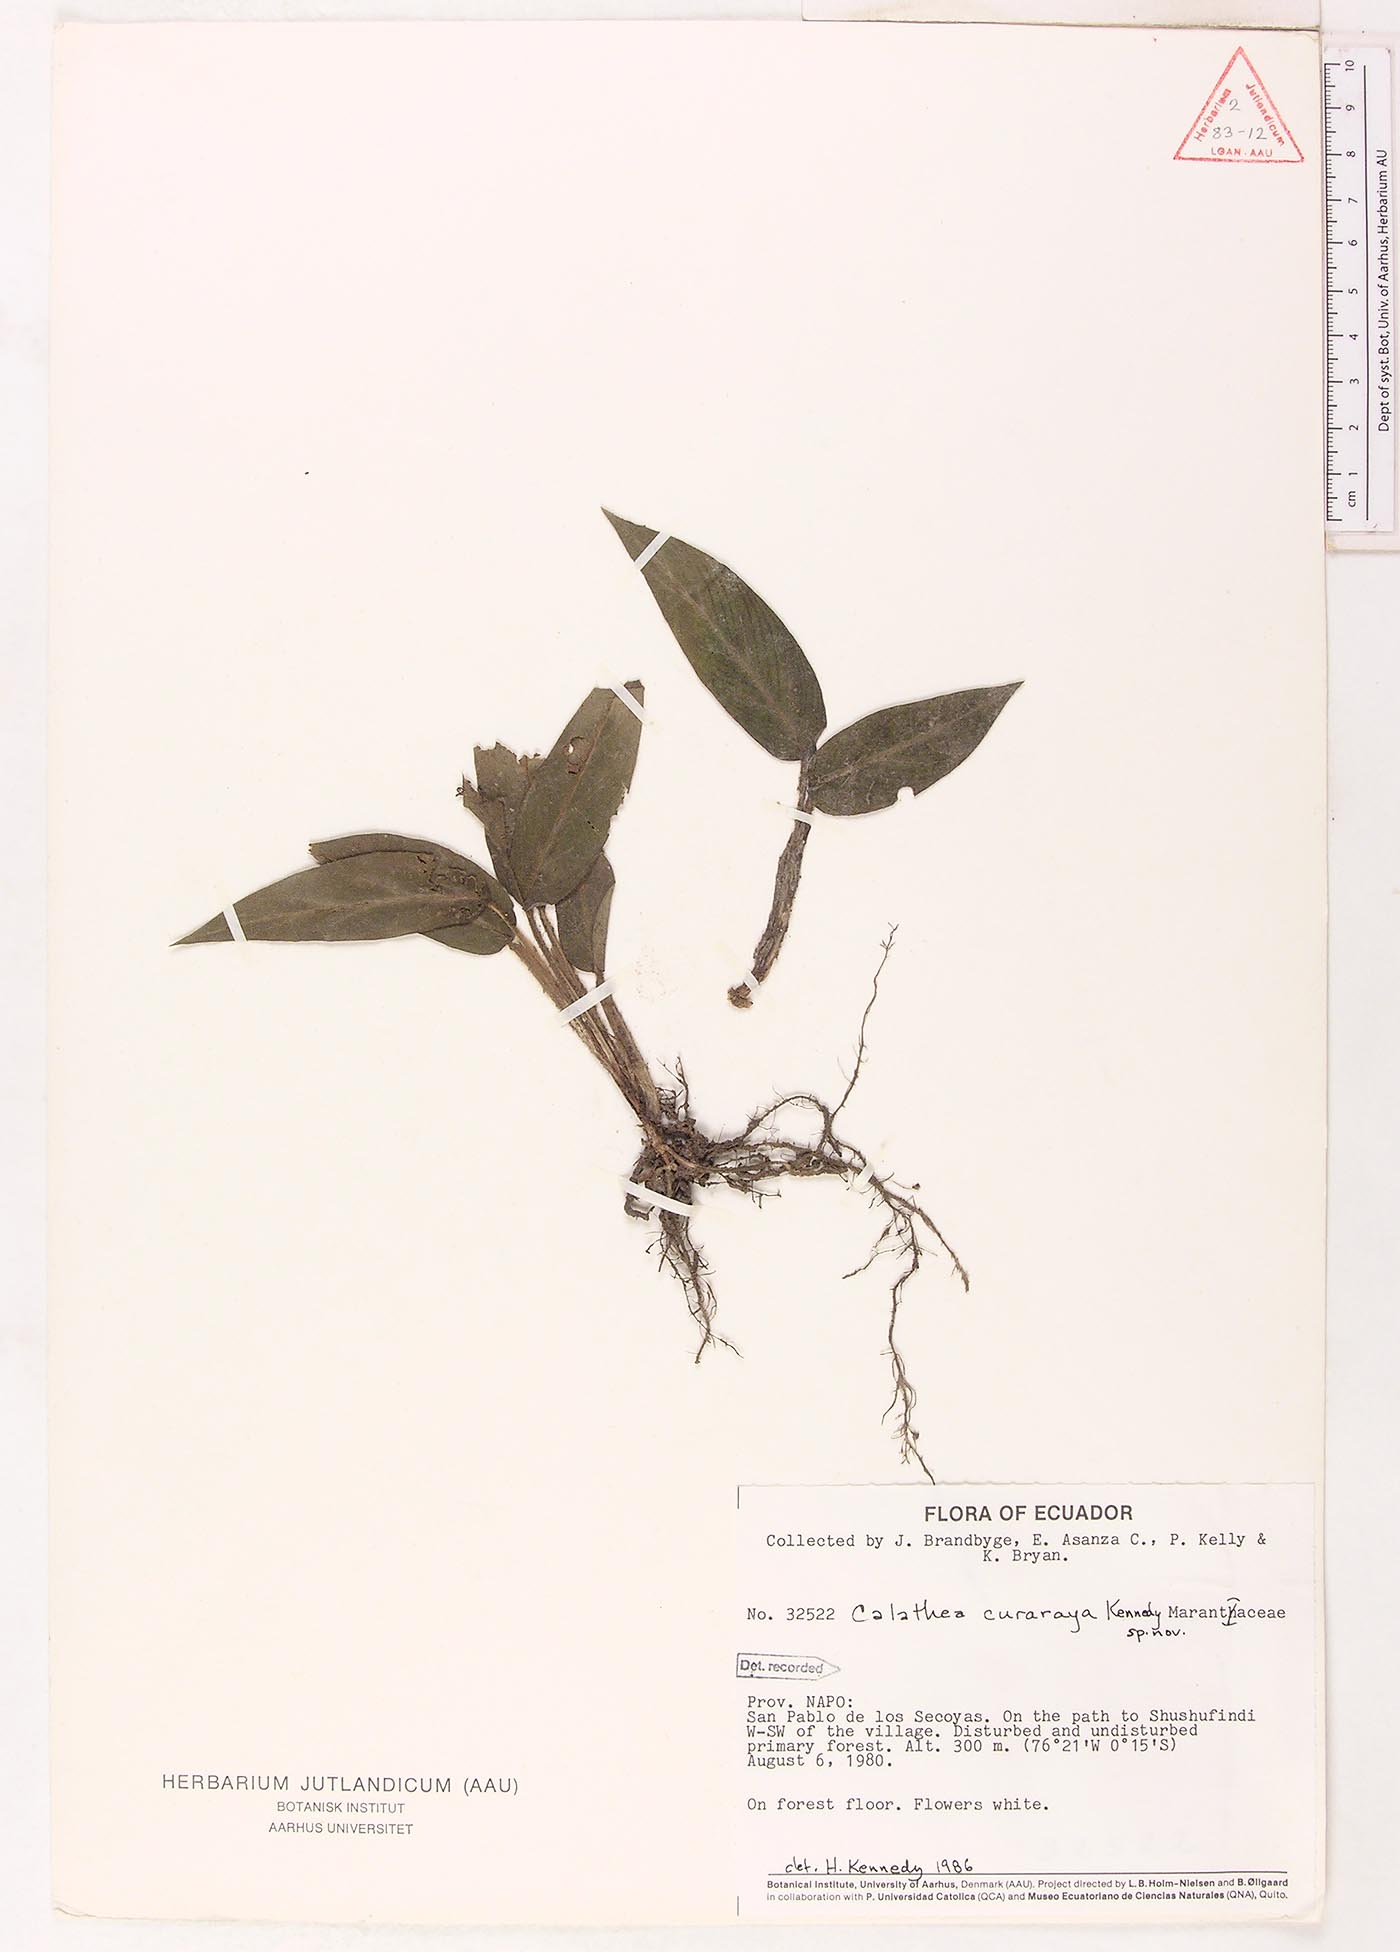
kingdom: Plantae
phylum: Tracheophyta
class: Liliopsida
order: Zingiberales
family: Marantaceae
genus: Goeppertia
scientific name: Goeppertia curaraya
